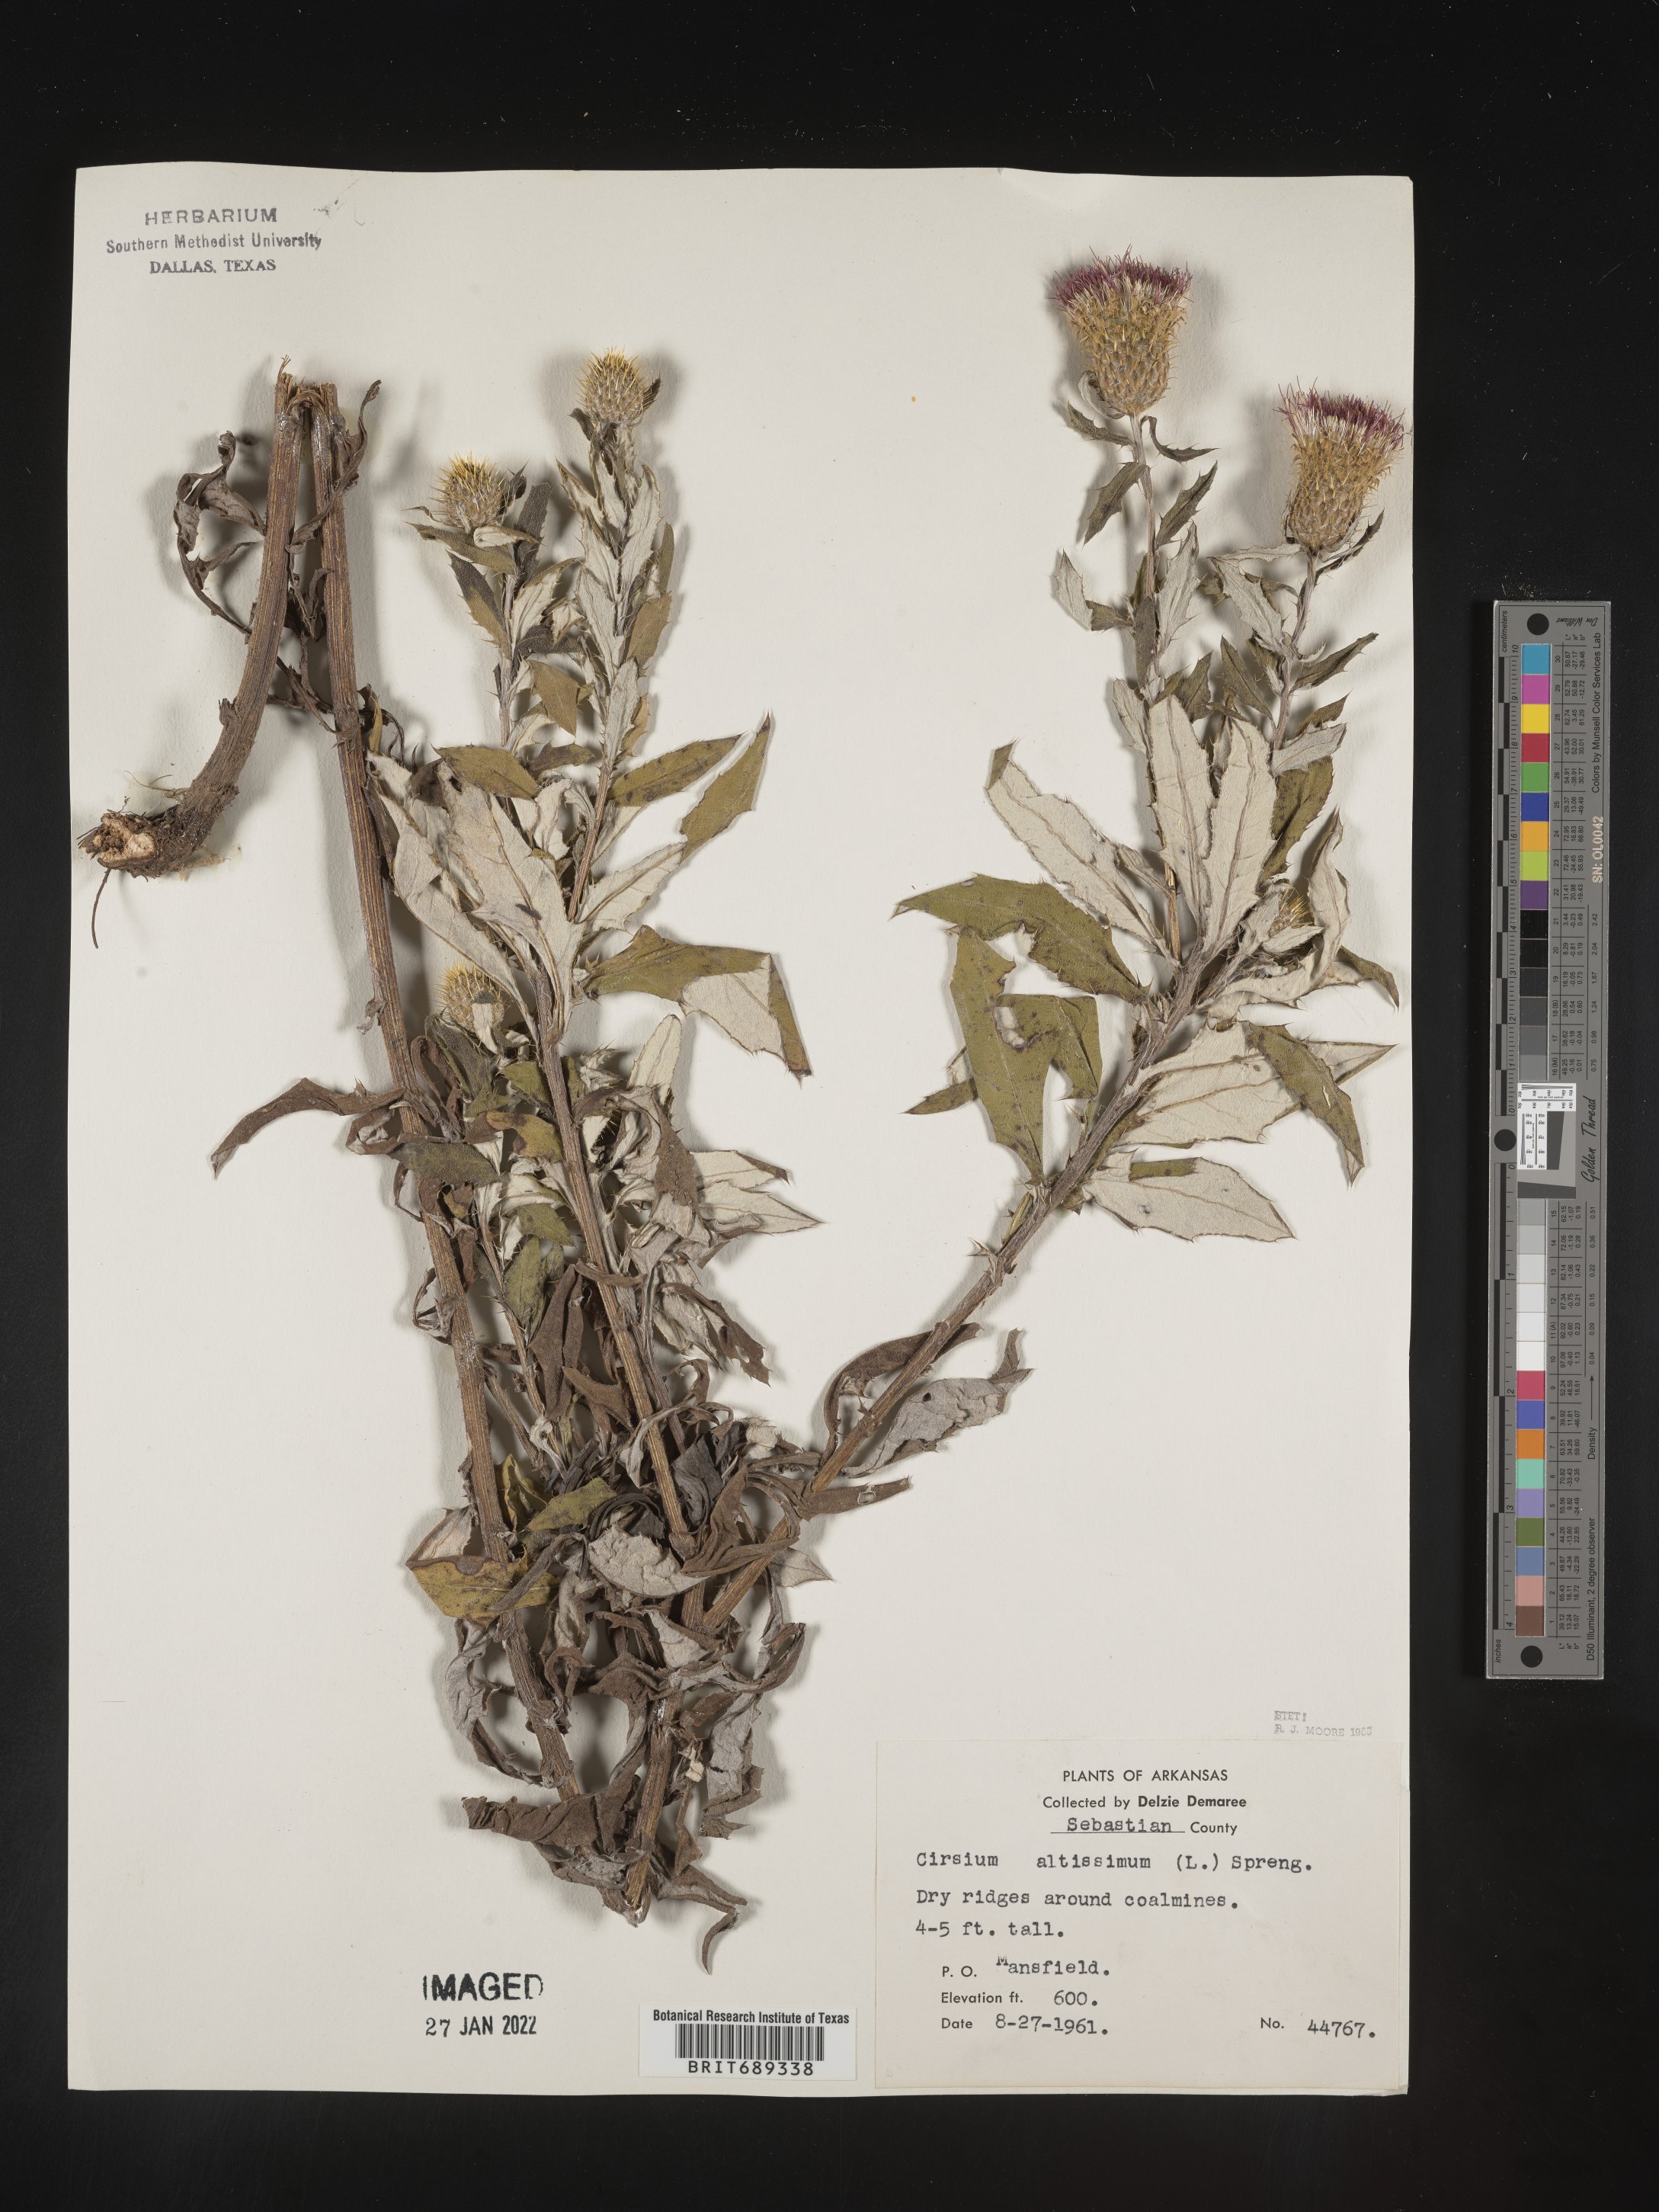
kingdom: Plantae
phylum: Tracheophyta
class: Magnoliopsida
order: Asterales
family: Asteraceae
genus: Cirsium
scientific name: Cirsium altissimum
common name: Roadside thistle
